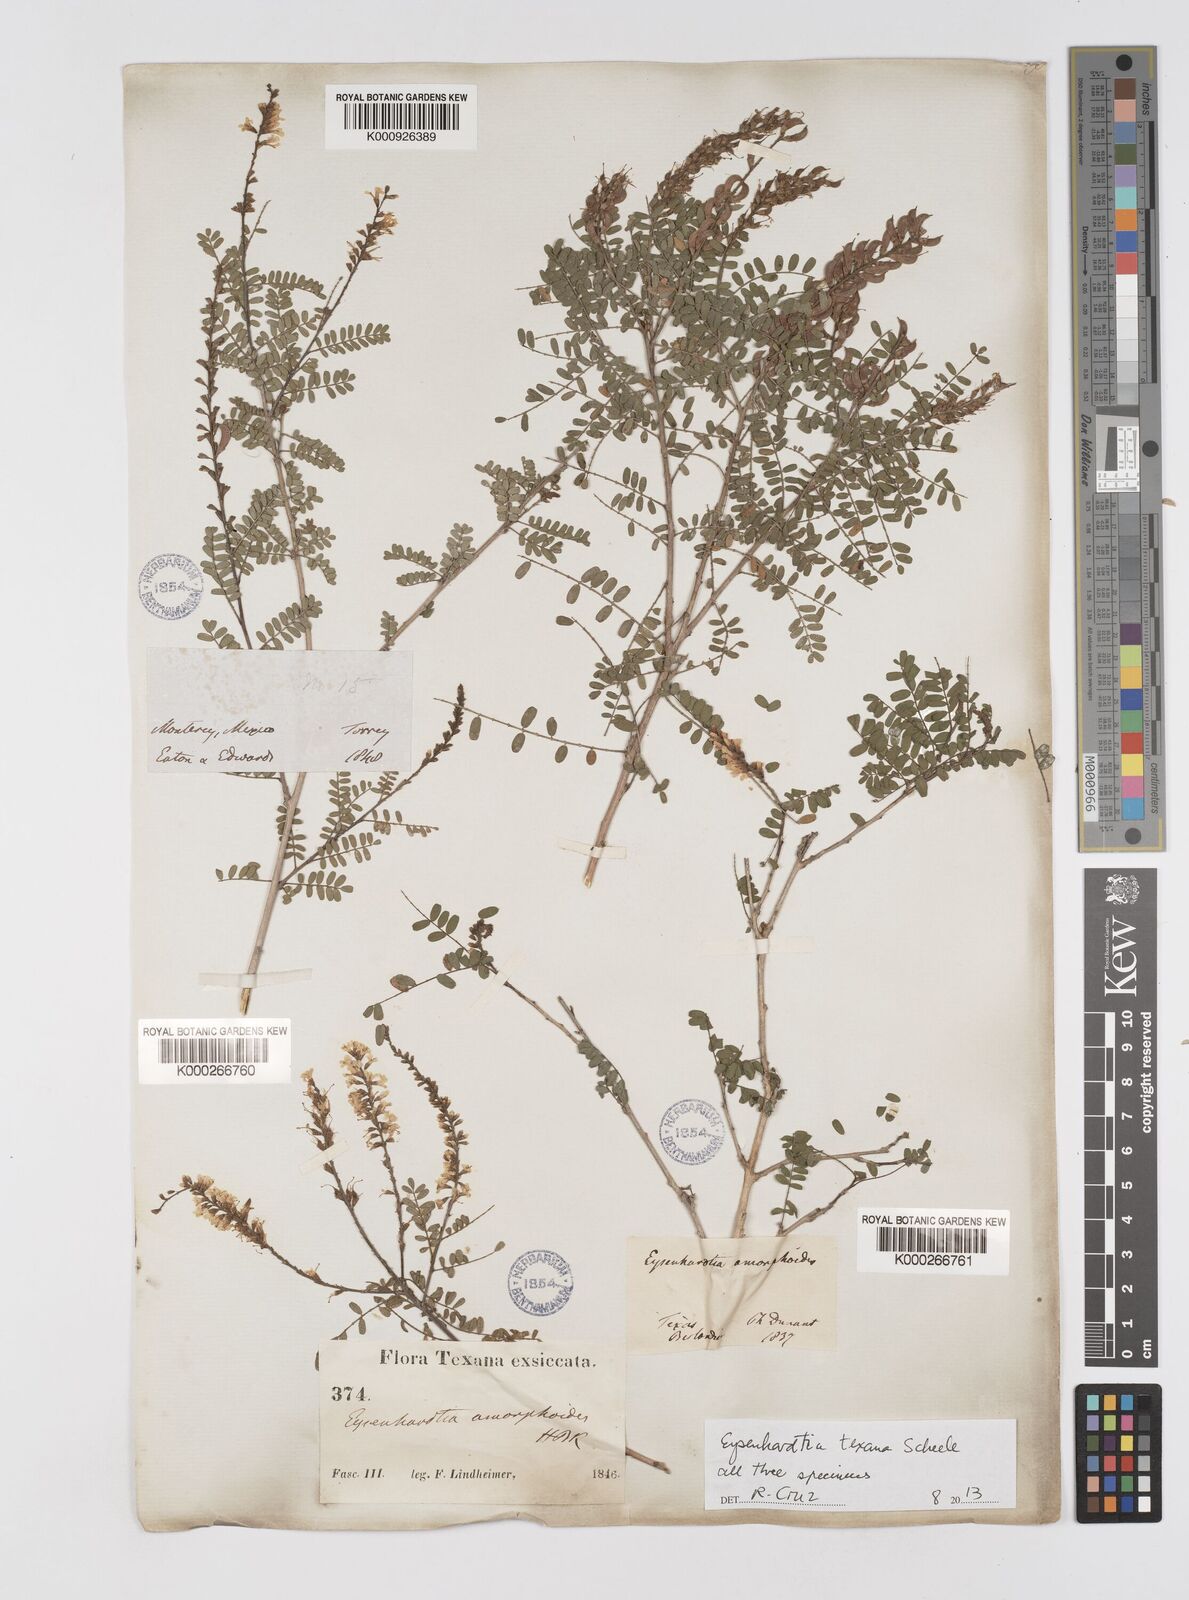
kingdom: Plantae
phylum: Tracheophyta
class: Magnoliopsida
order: Fabales
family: Fabaceae
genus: Eysenhardtia
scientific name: Eysenhardtia texana
